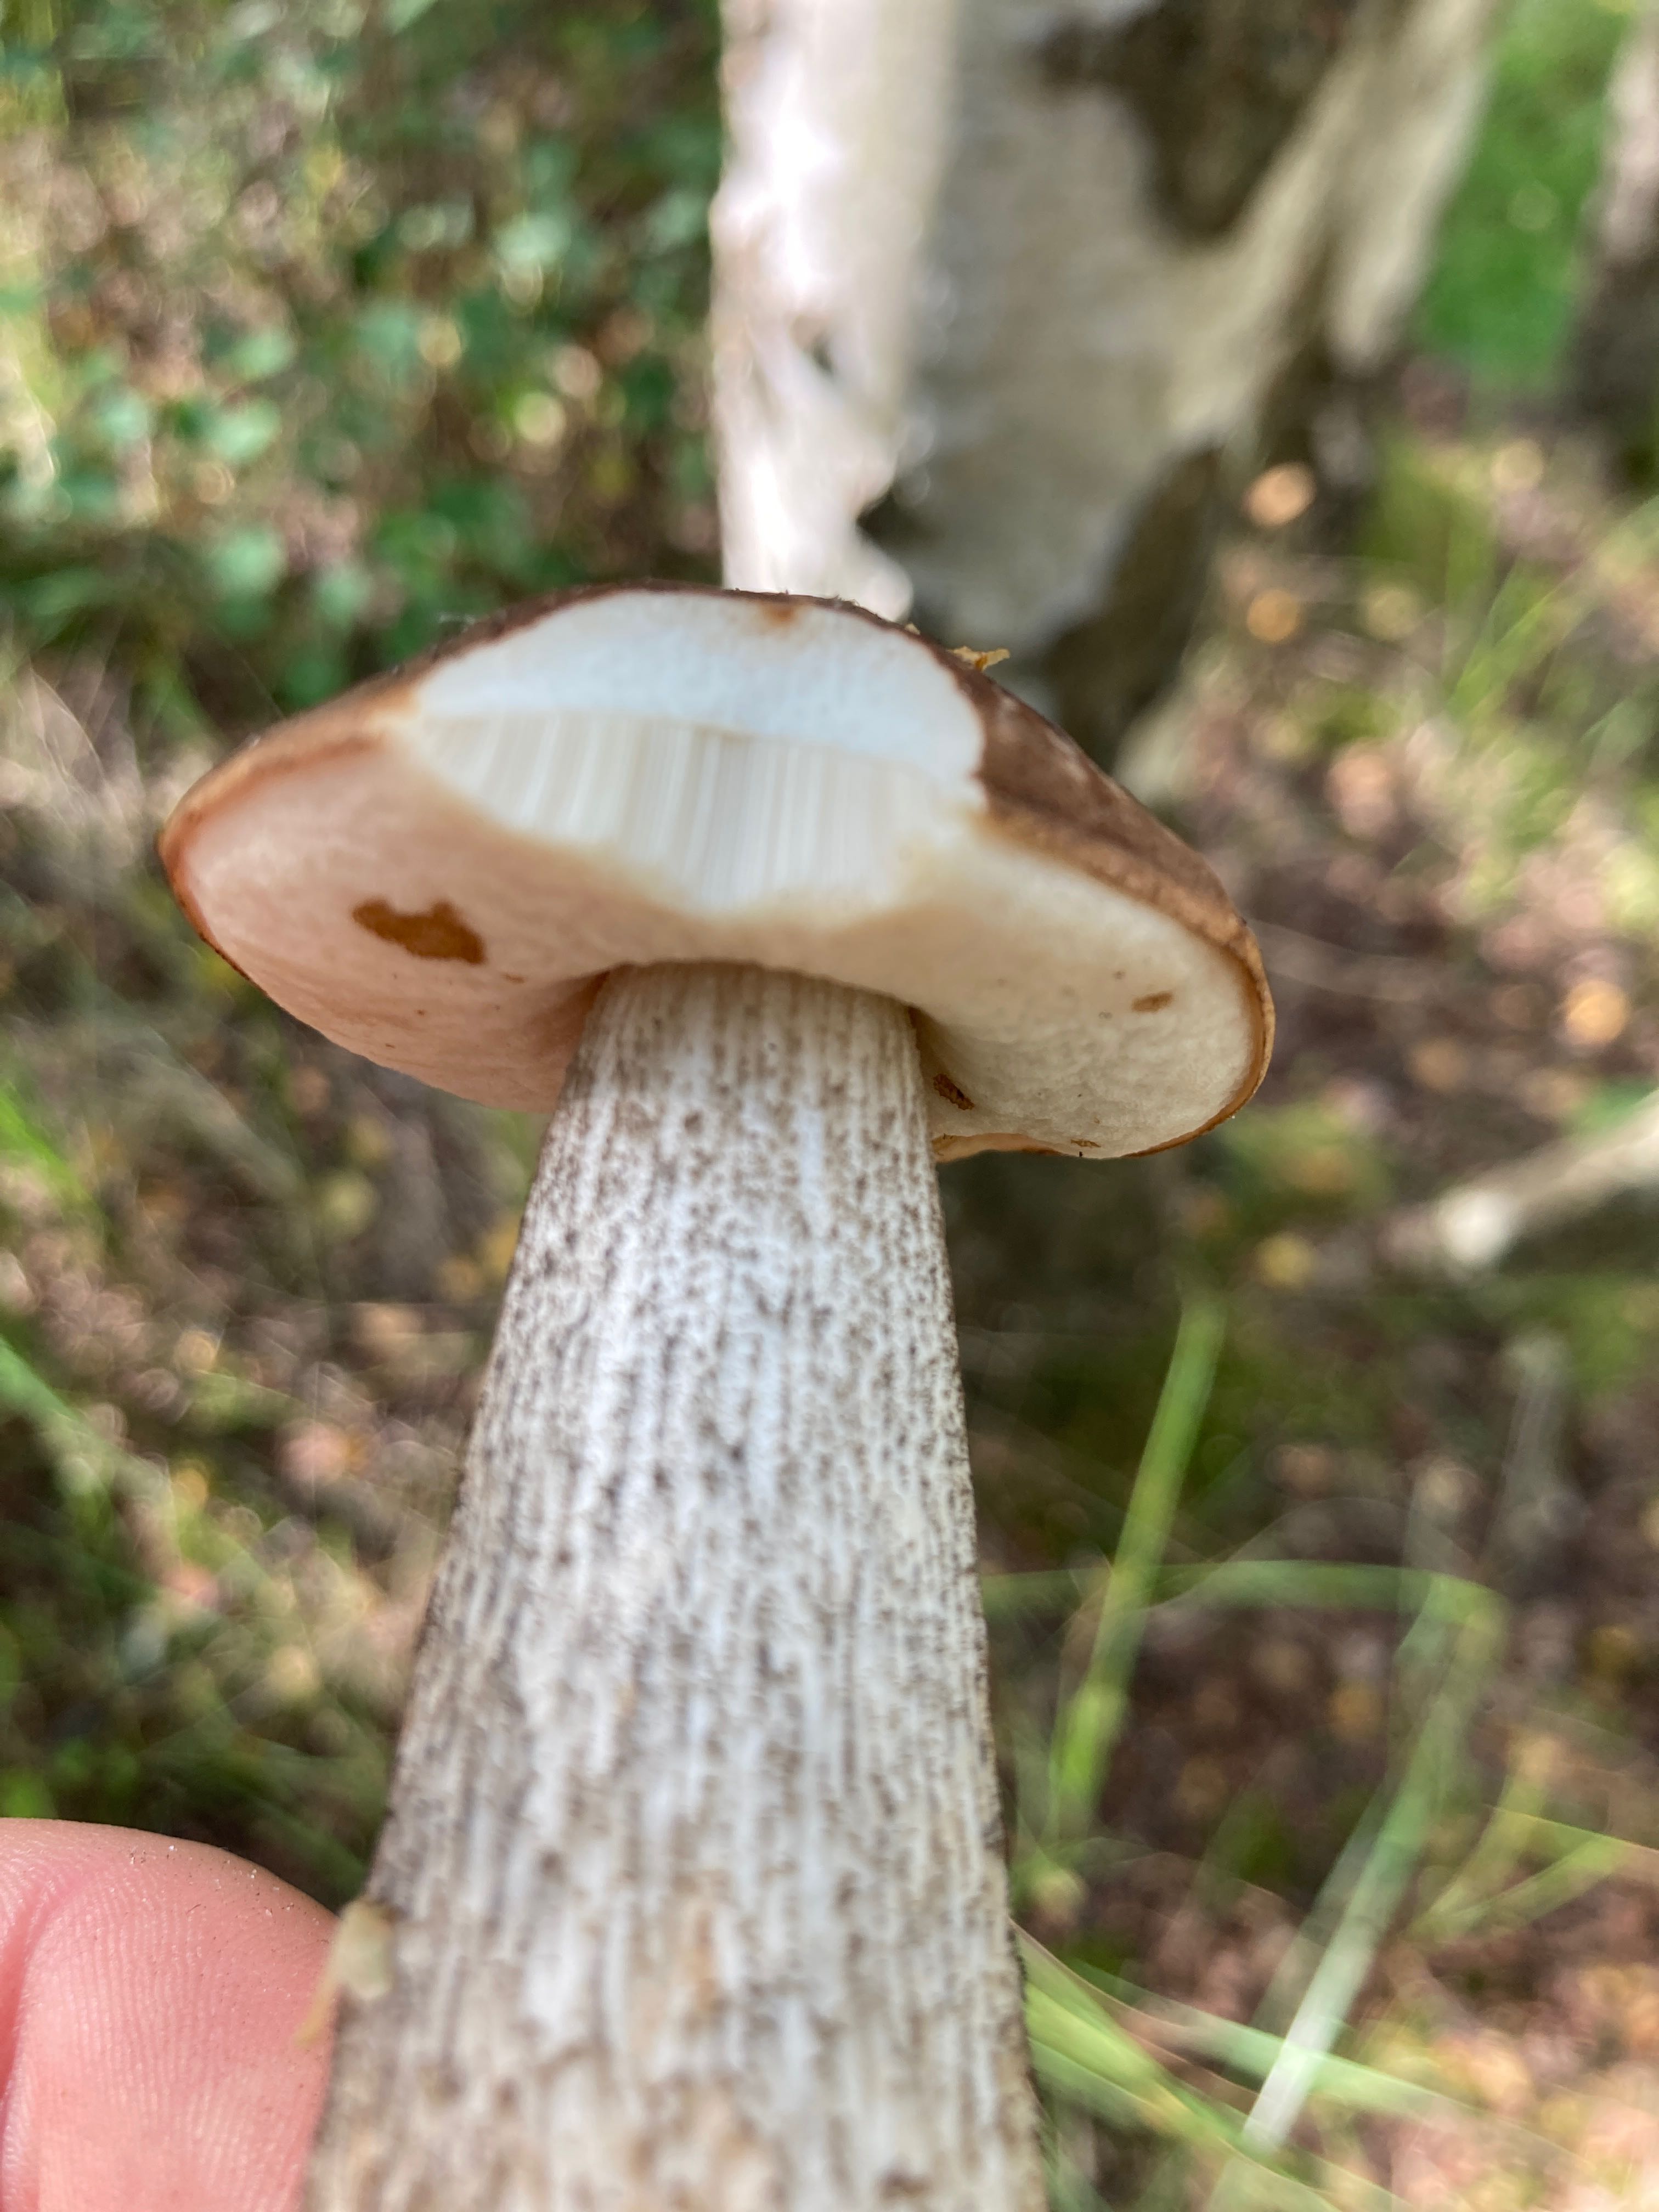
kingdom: Fungi
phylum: Basidiomycota
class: Agaricomycetes
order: Boletales
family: Boletaceae
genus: Leccinum
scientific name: Leccinum scabrum
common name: brun skælrørhat
